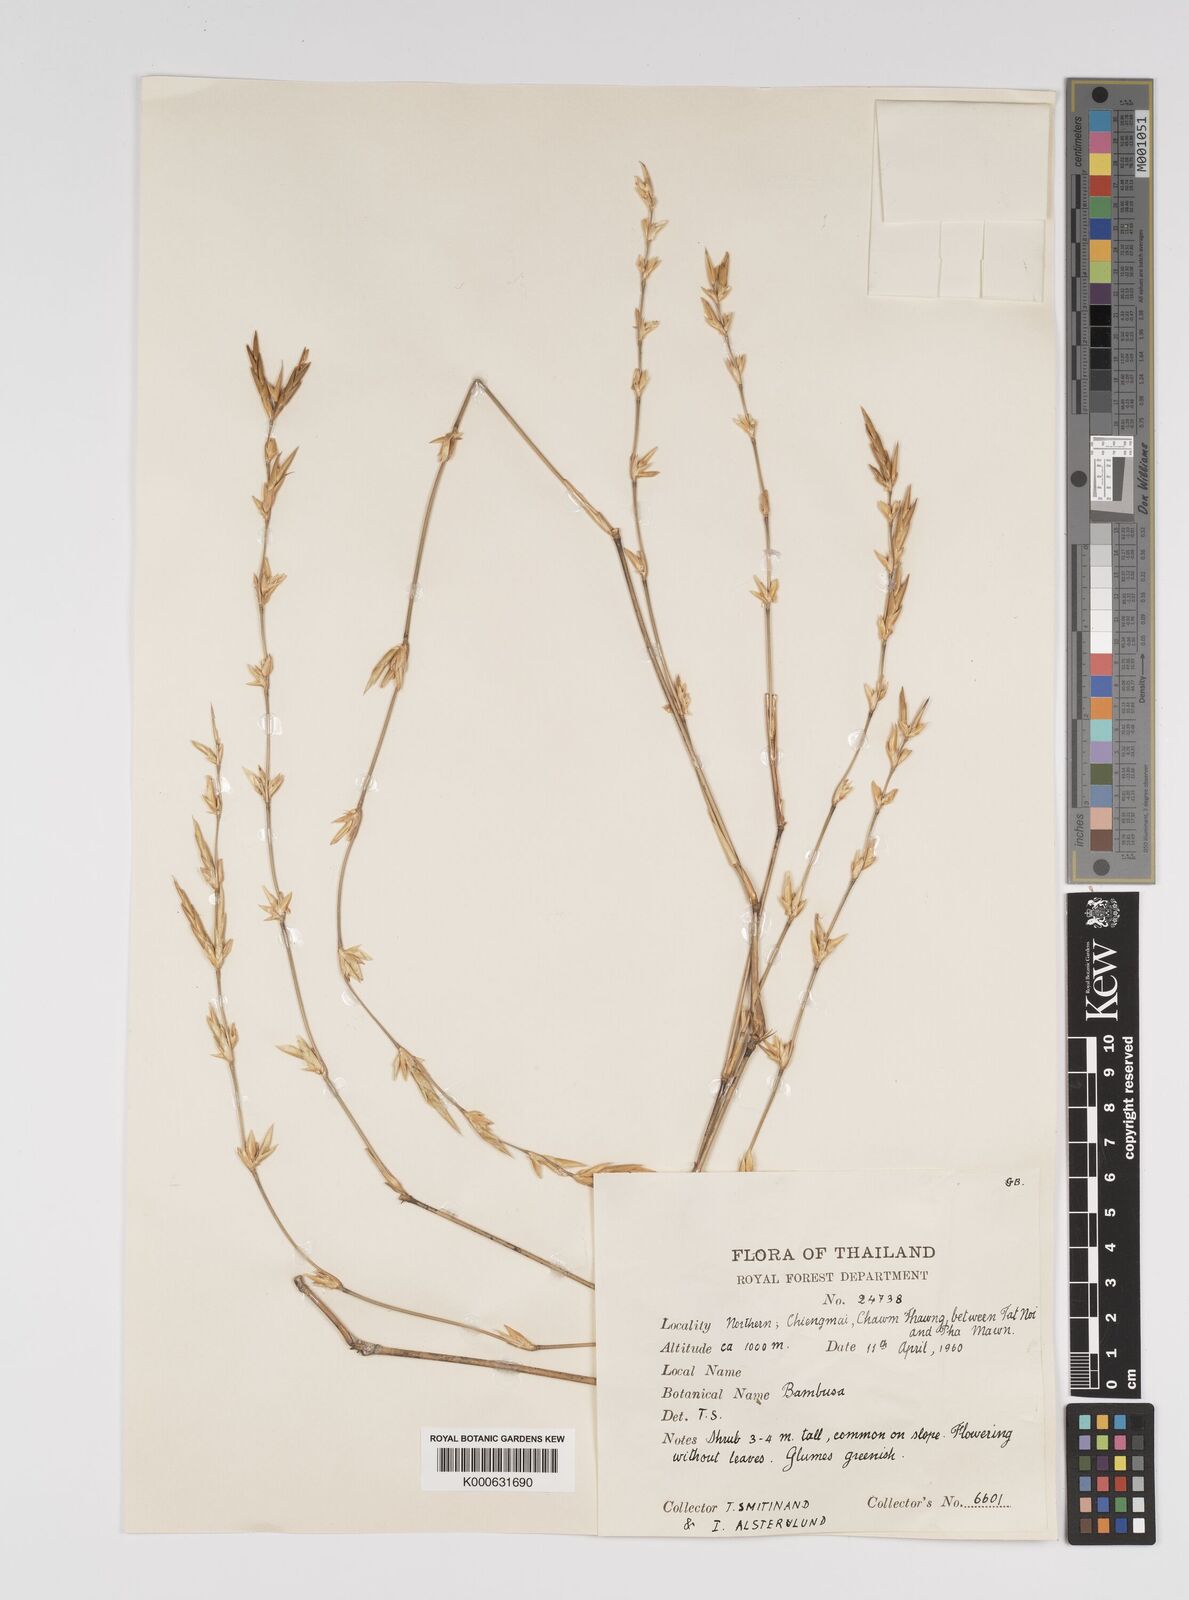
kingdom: Plantae
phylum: Tracheophyta
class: Liliopsida
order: Poales
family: Poaceae
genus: Bambusa
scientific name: Bambusa
